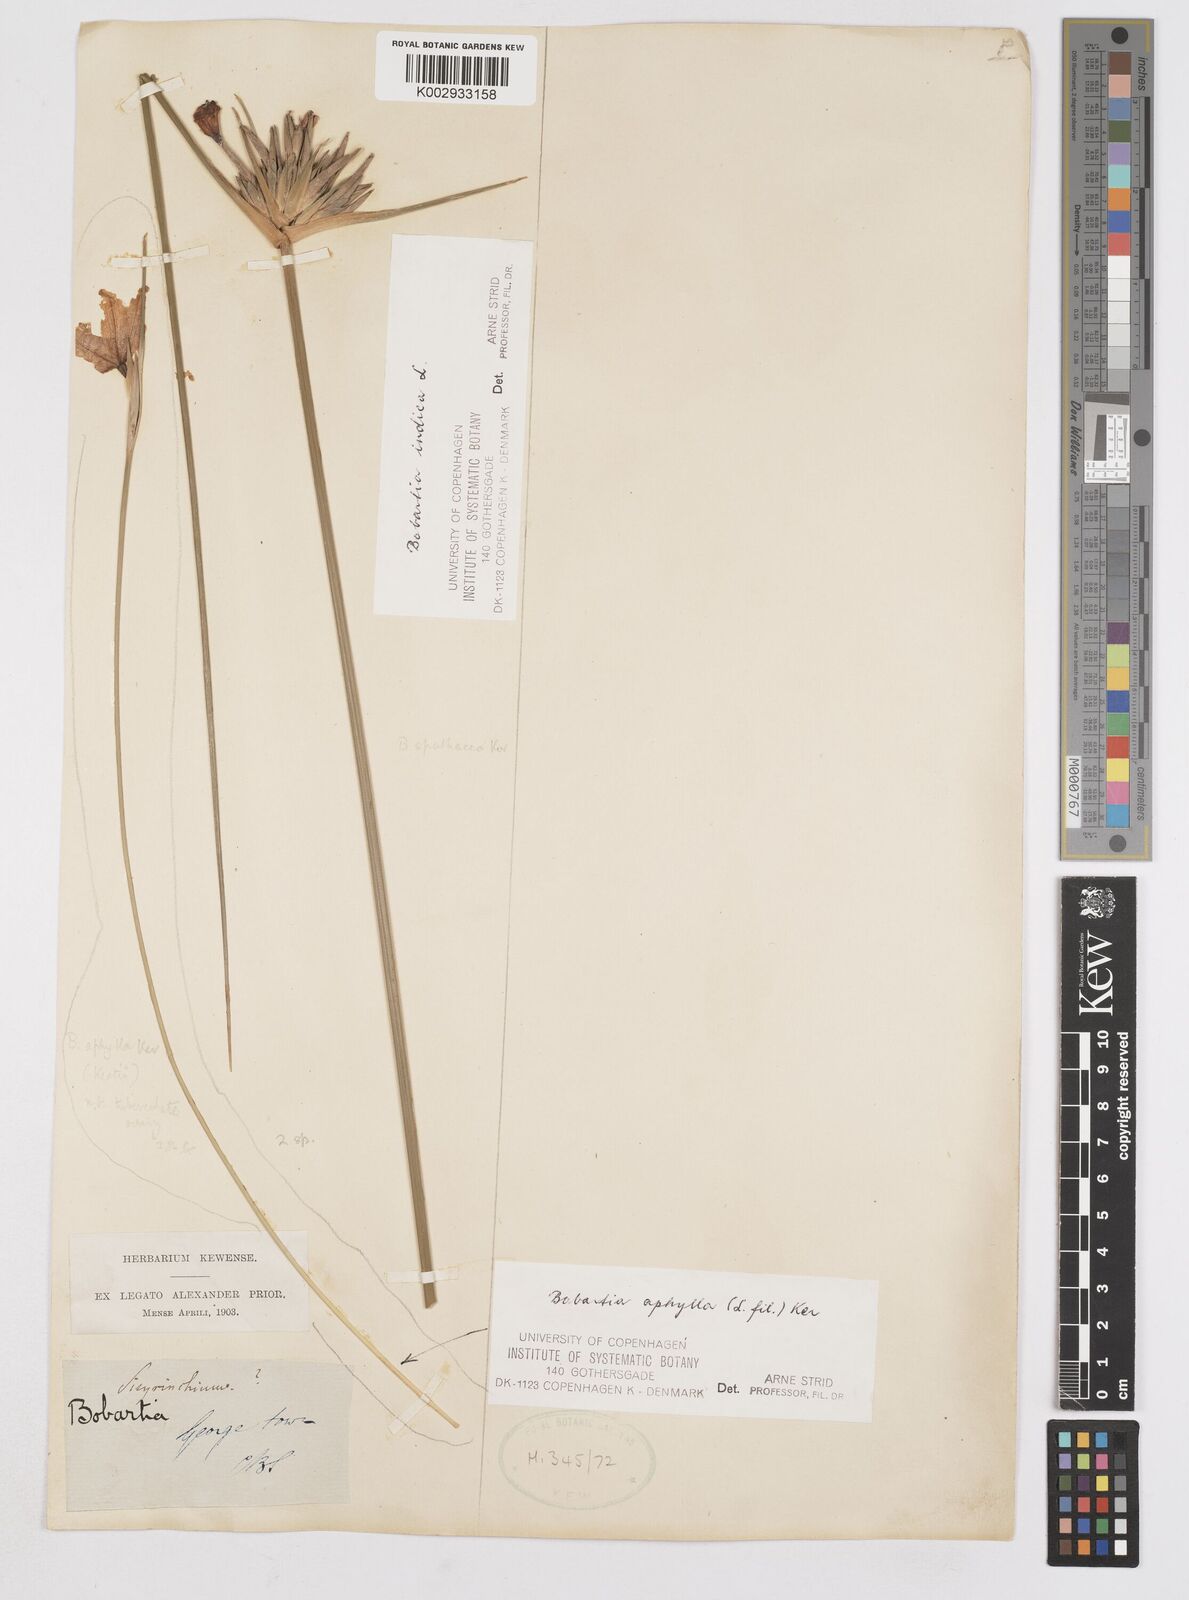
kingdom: Plantae
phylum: Tracheophyta
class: Liliopsida
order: Asparagales
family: Iridaceae
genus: Bobartia
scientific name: Bobartia indica
